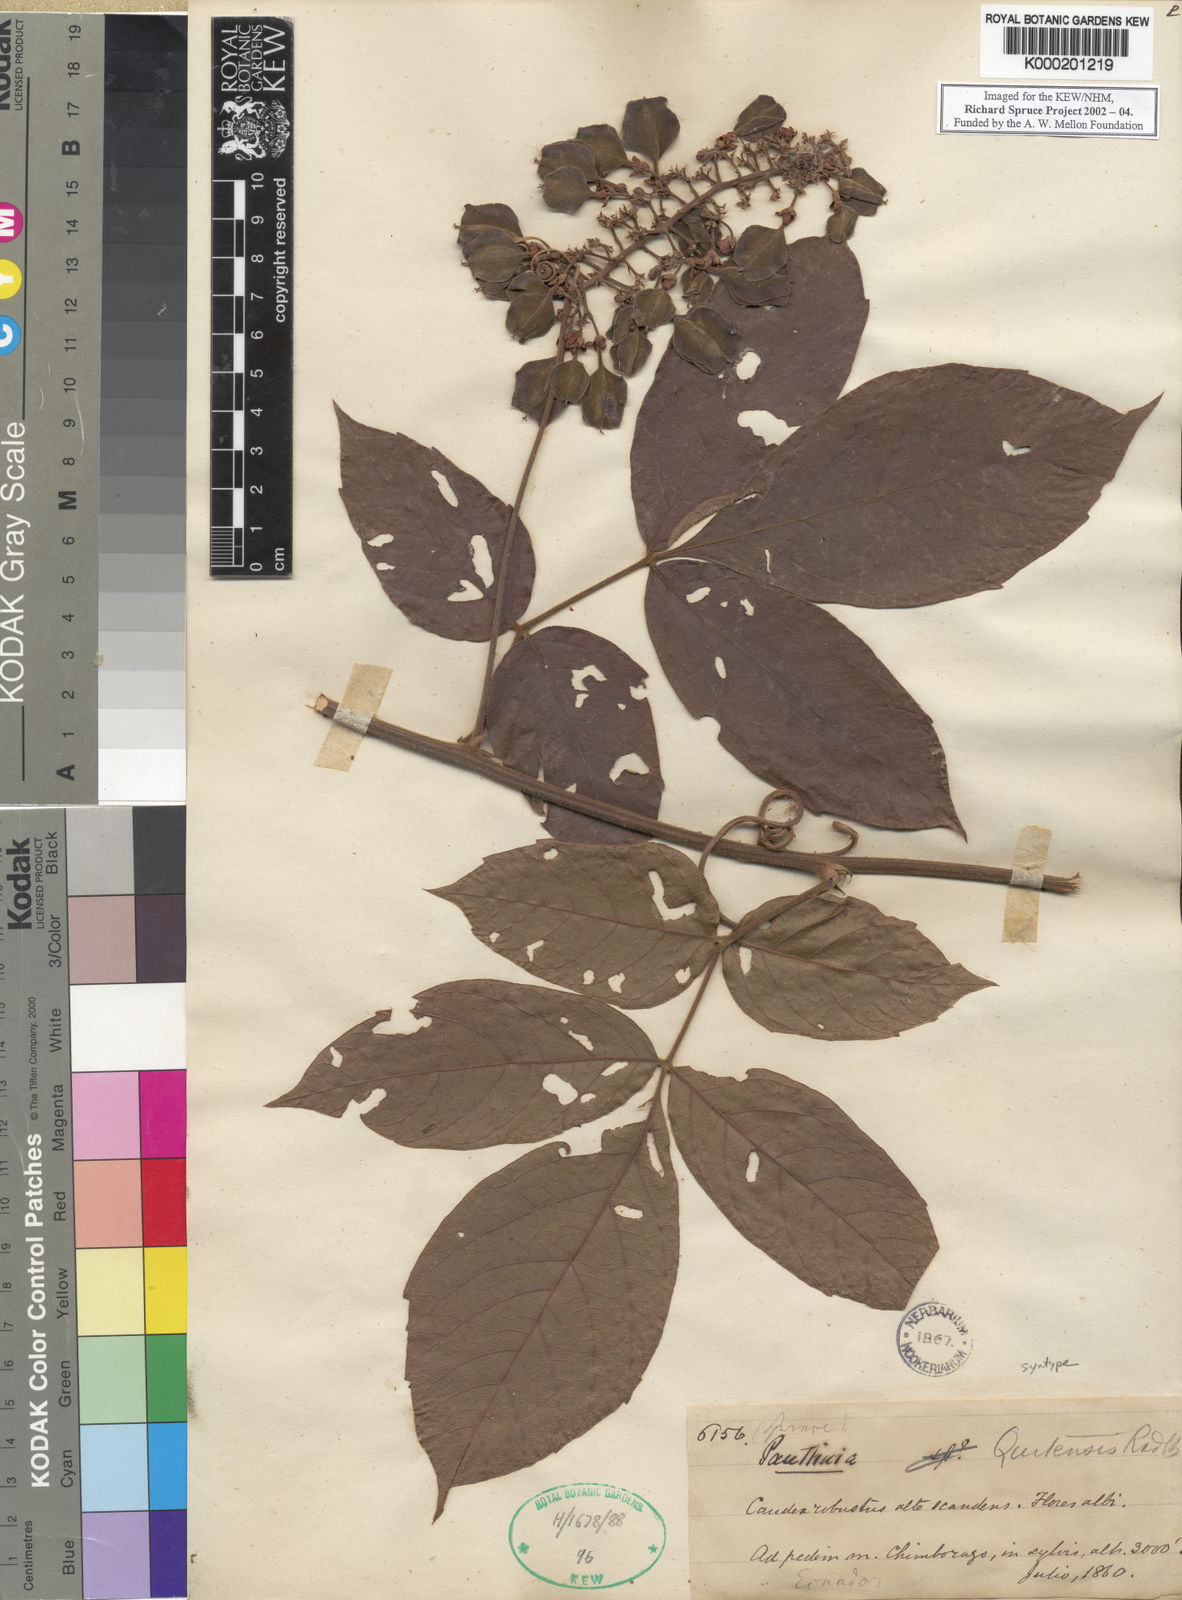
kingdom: Plantae
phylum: Tracheophyta
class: Magnoliopsida
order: Sapindales
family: Sapindaceae
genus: Paullinia
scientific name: Paullinia quitensis
